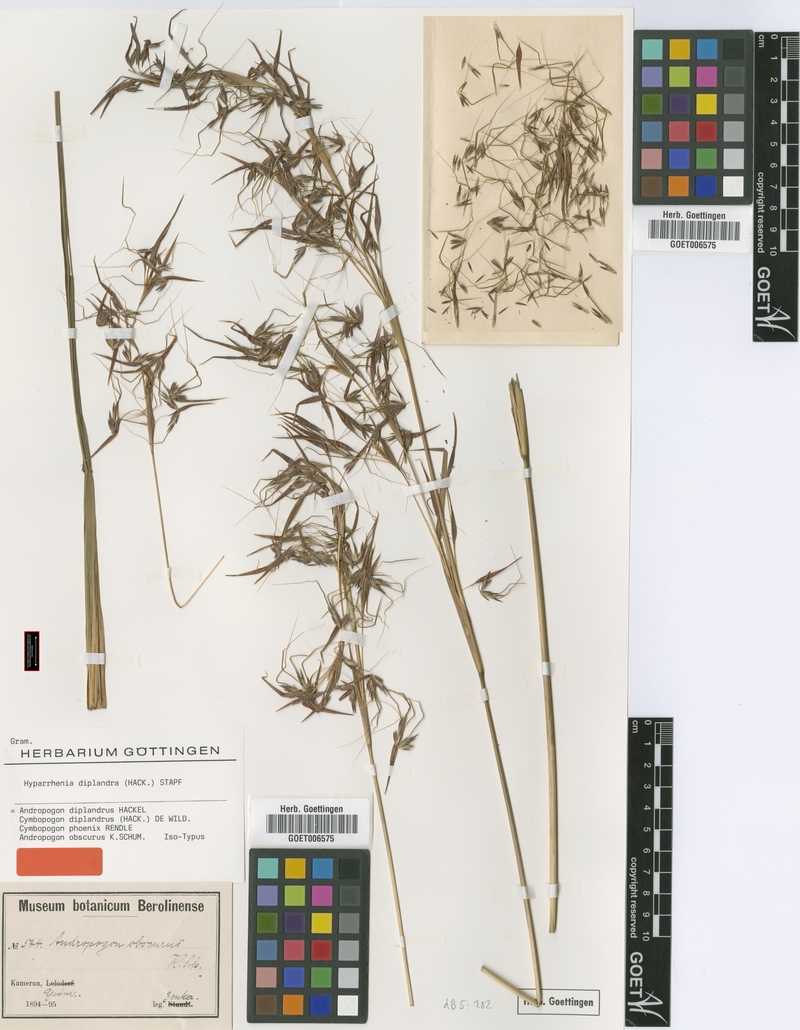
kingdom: Plantae
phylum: Tracheophyta
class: Liliopsida
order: Poales
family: Poaceae
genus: Hyparrhenia
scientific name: Hyparrhenia diplandra
